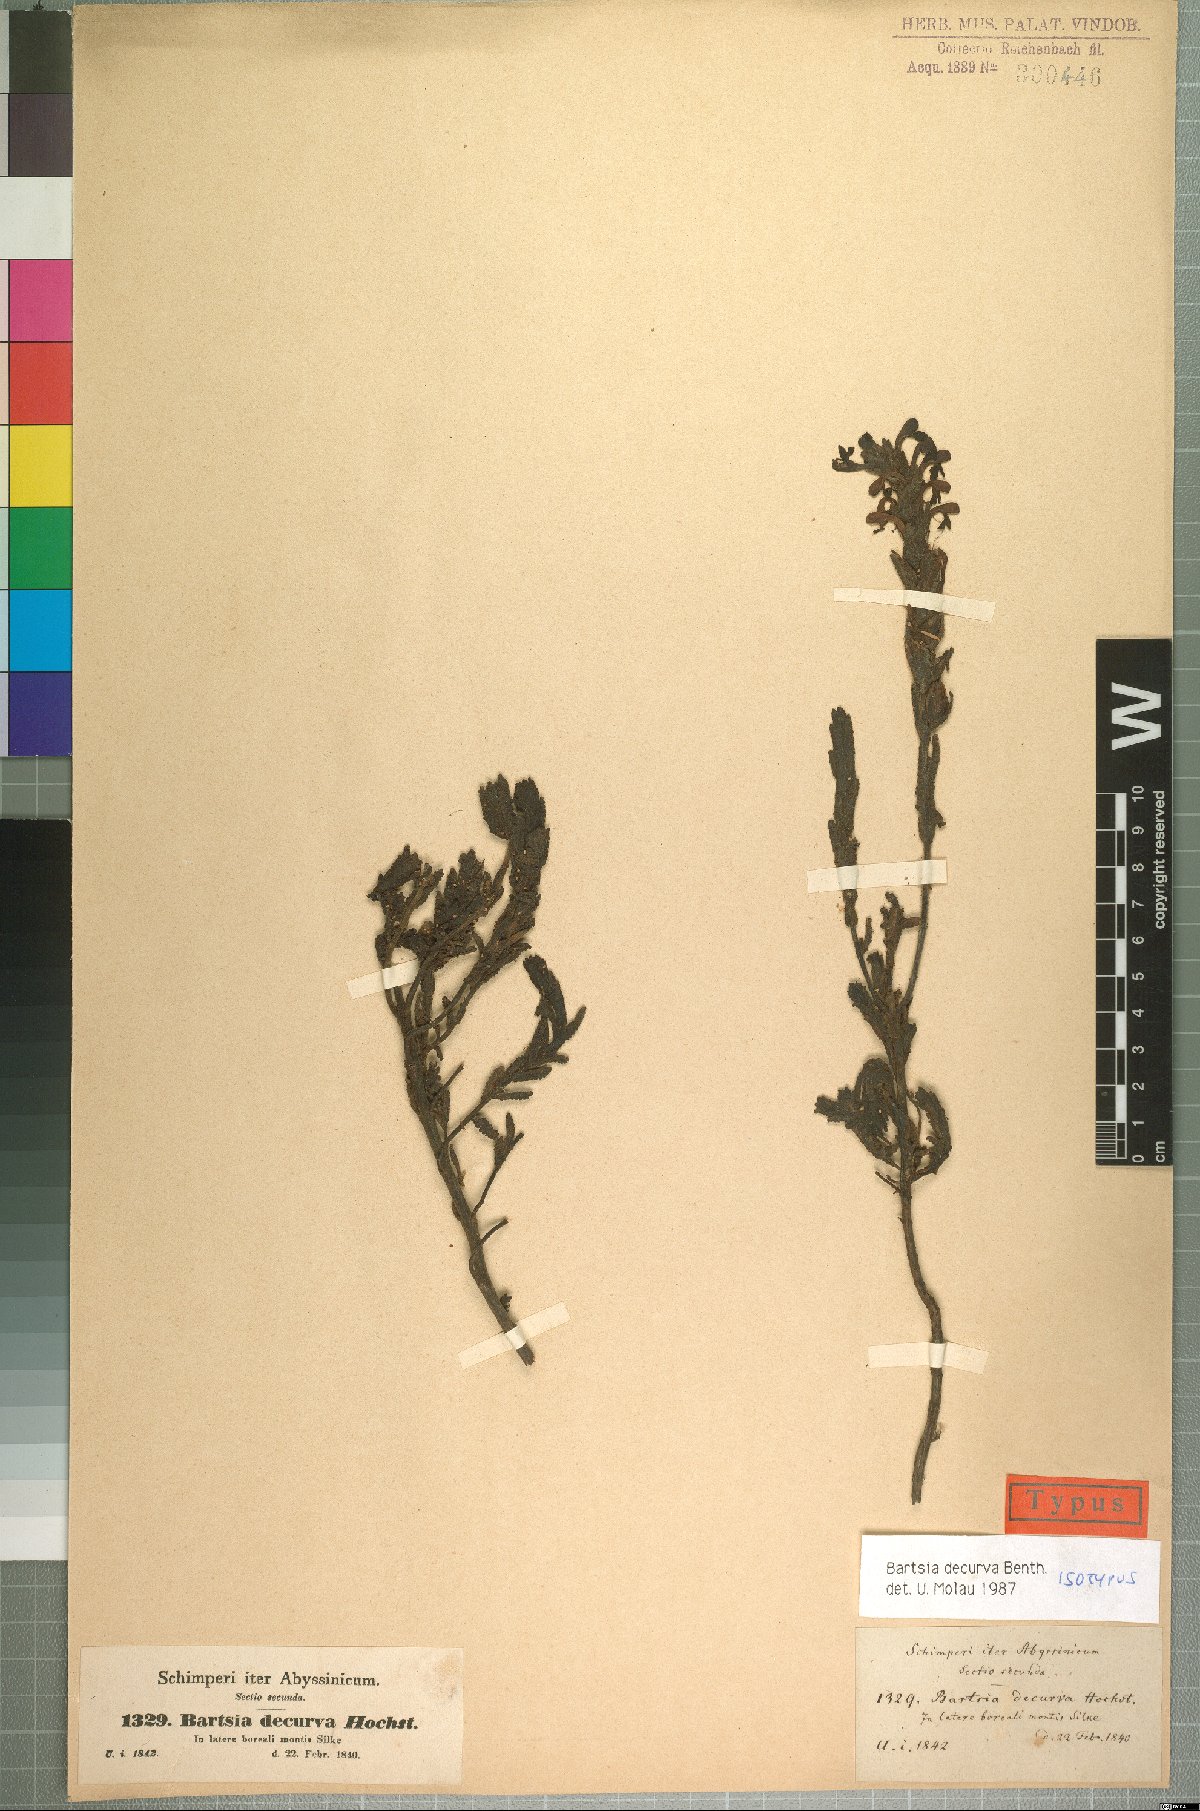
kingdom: Plantae
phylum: Tracheophyta
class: Magnoliopsida
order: Lamiales
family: Orobanchaceae
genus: Hedbergia
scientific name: Hedbergia decurva
